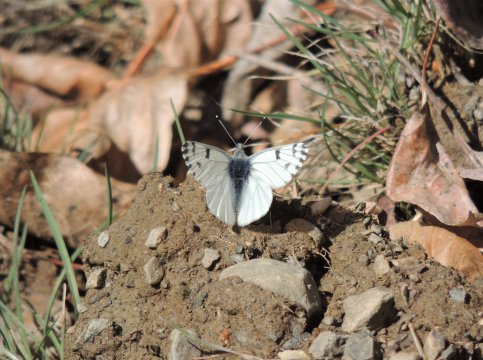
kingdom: Animalia
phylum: Arthropoda
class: Insecta
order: Lepidoptera
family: Pieridae
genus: Pontia
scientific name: Pontia sisymbrii
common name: Spring White
